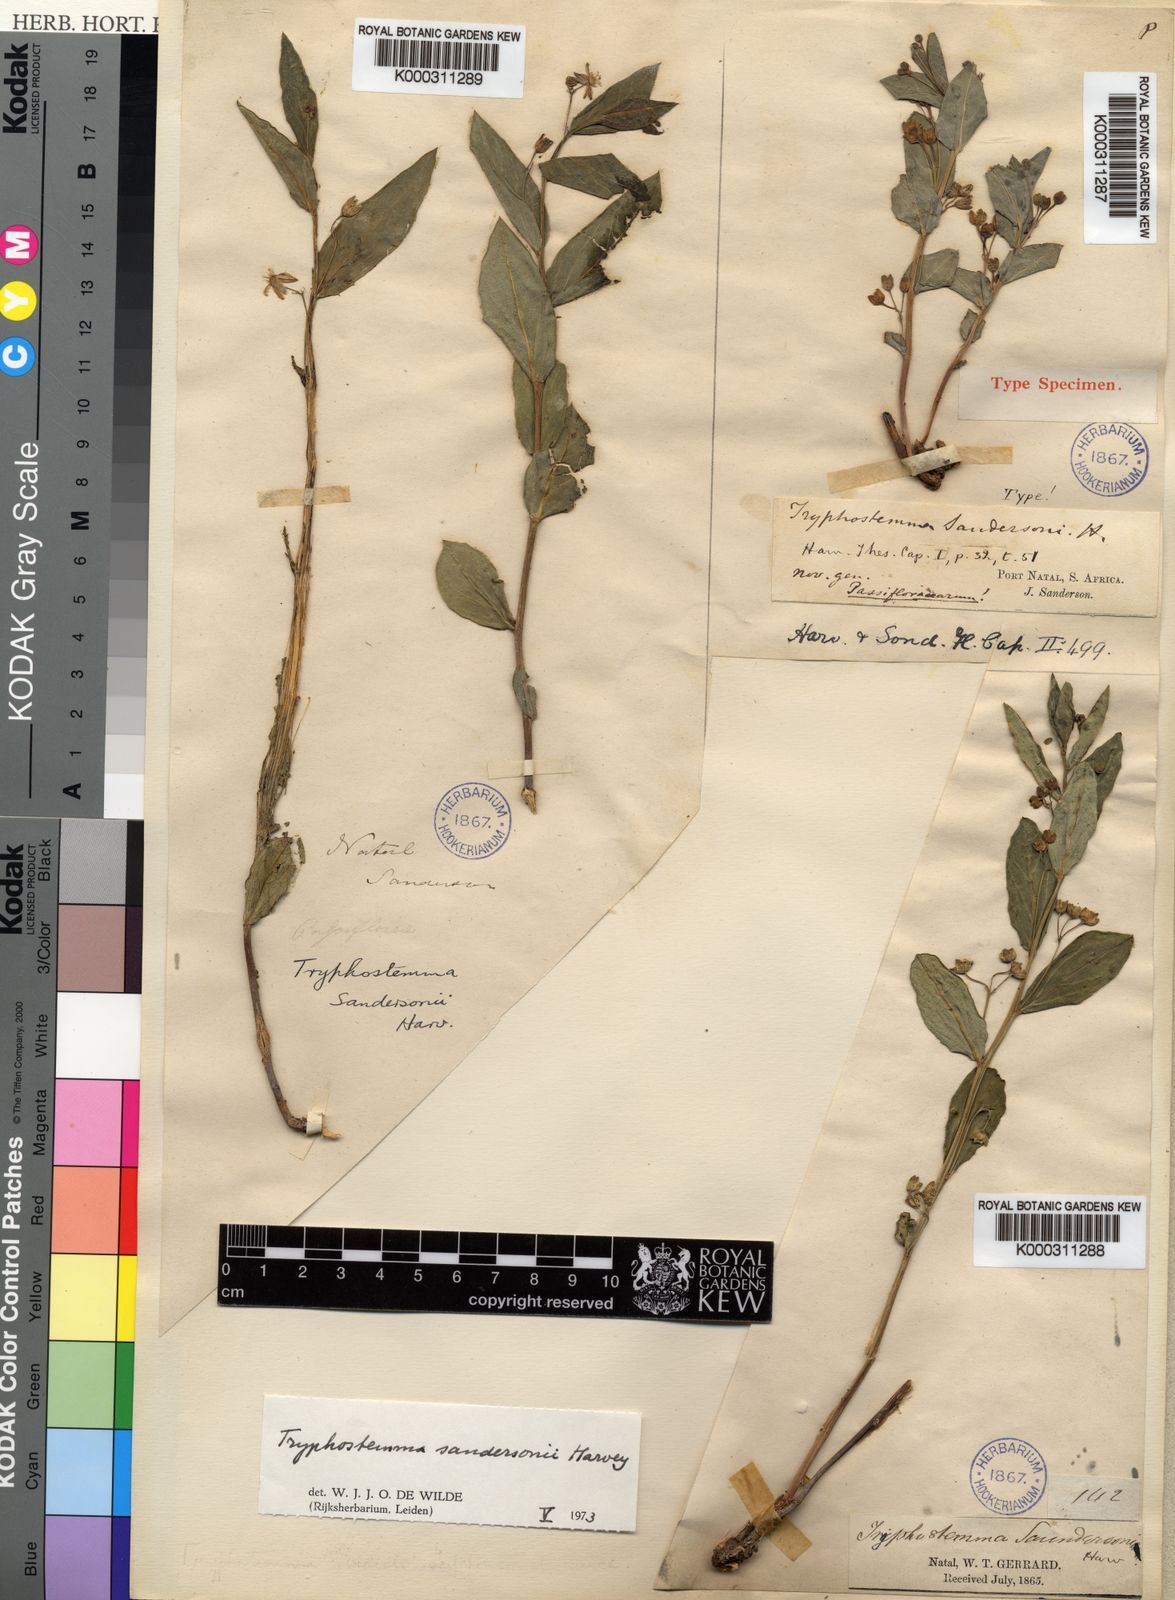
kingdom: Plantae
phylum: Tracheophyta
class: Magnoliopsida
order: Malpighiales
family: Passifloraceae
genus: Basananthe
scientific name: Basananthe sandersonii
